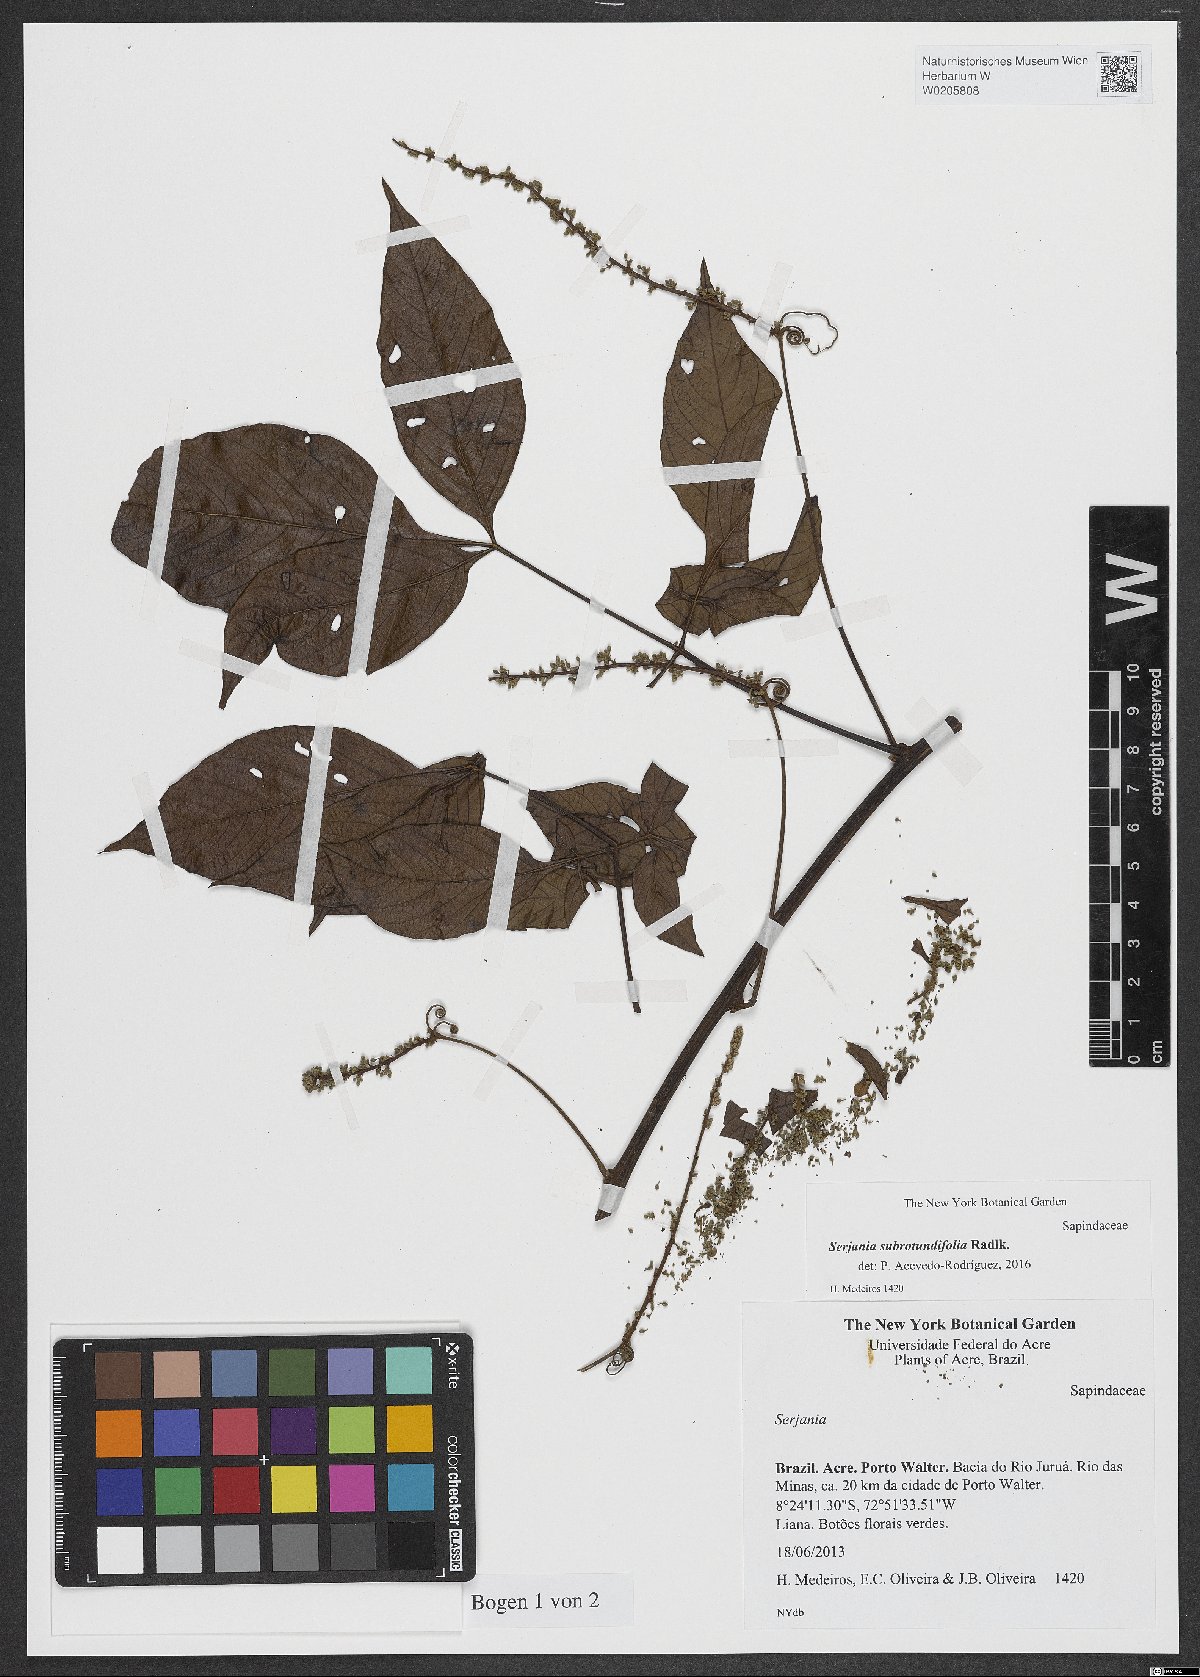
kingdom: Plantae
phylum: Tracheophyta
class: Magnoliopsida
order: Sapindales
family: Sapindaceae
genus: Serjania
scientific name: Serjania subrotundifolia
